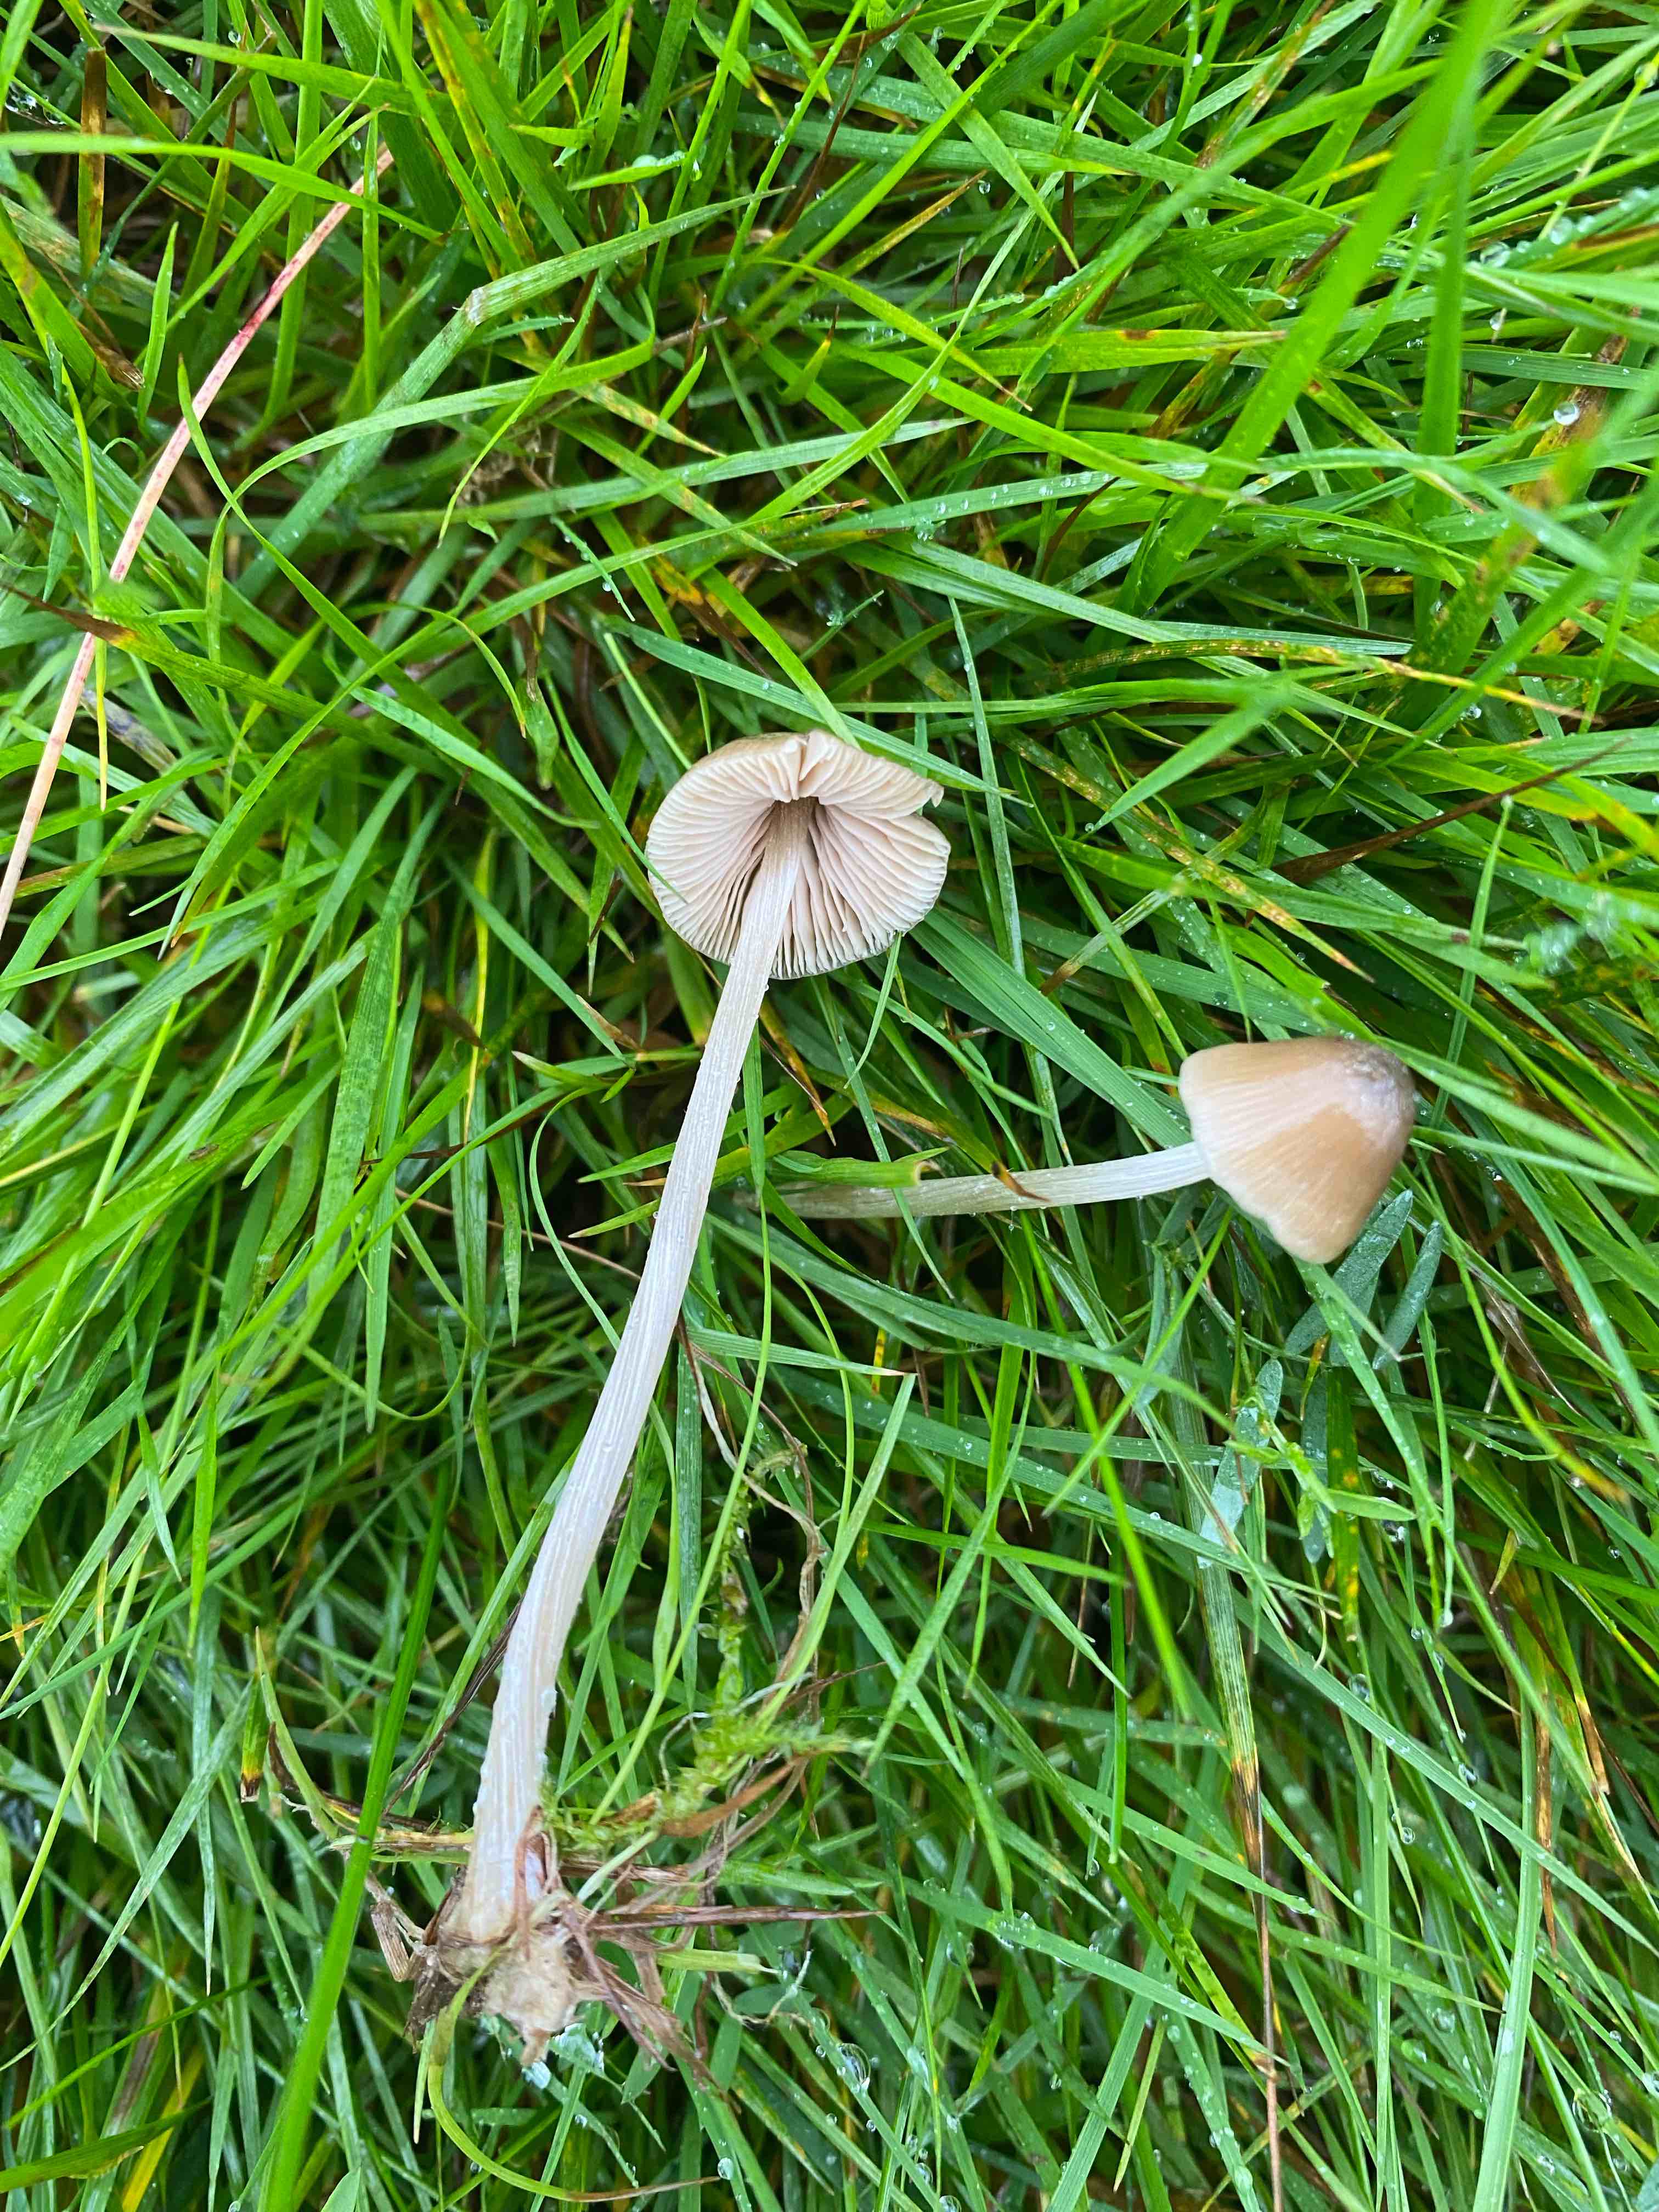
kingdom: Fungi
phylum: Basidiomycota
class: Agaricomycetes
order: Agaricales
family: Entolomataceae
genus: Entoloma
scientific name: Entoloma conferendum
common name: stjernesporet rødblad
